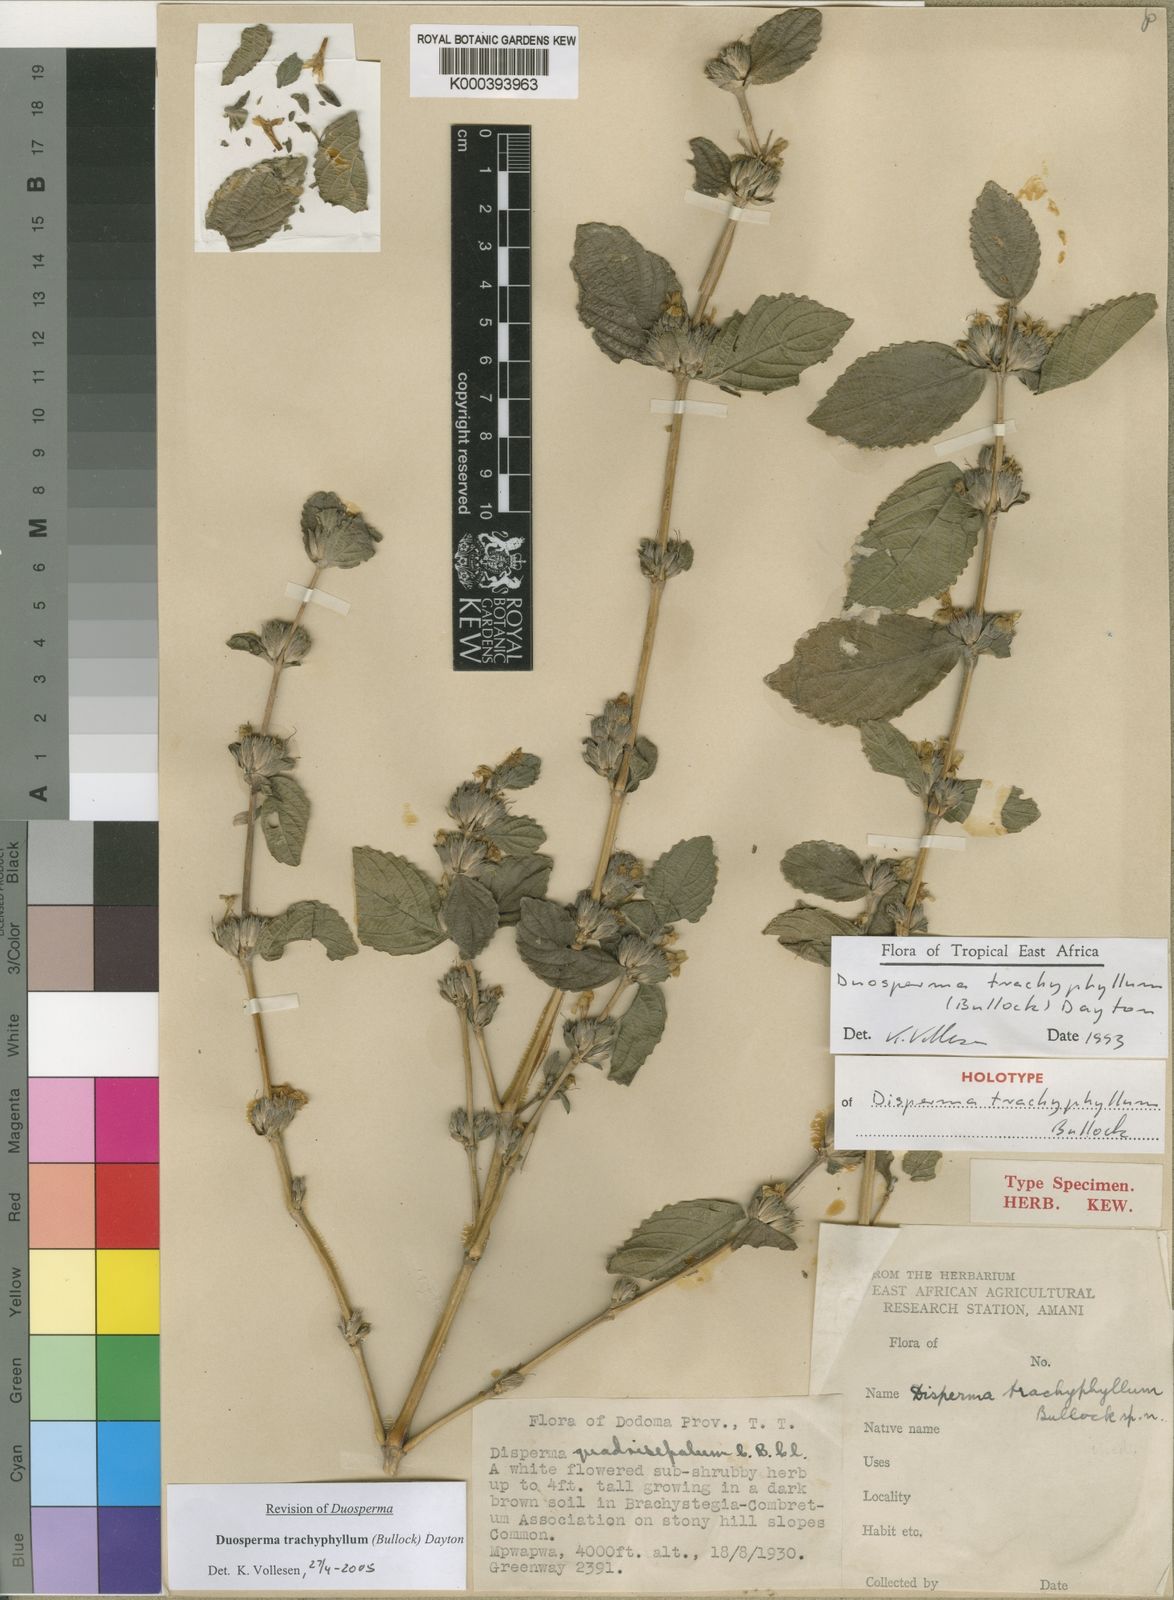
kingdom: Plantae
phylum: Tracheophyta
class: Magnoliopsida
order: Lamiales
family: Acanthaceae
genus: Duosperma
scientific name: Duosperma trachyphyllum
